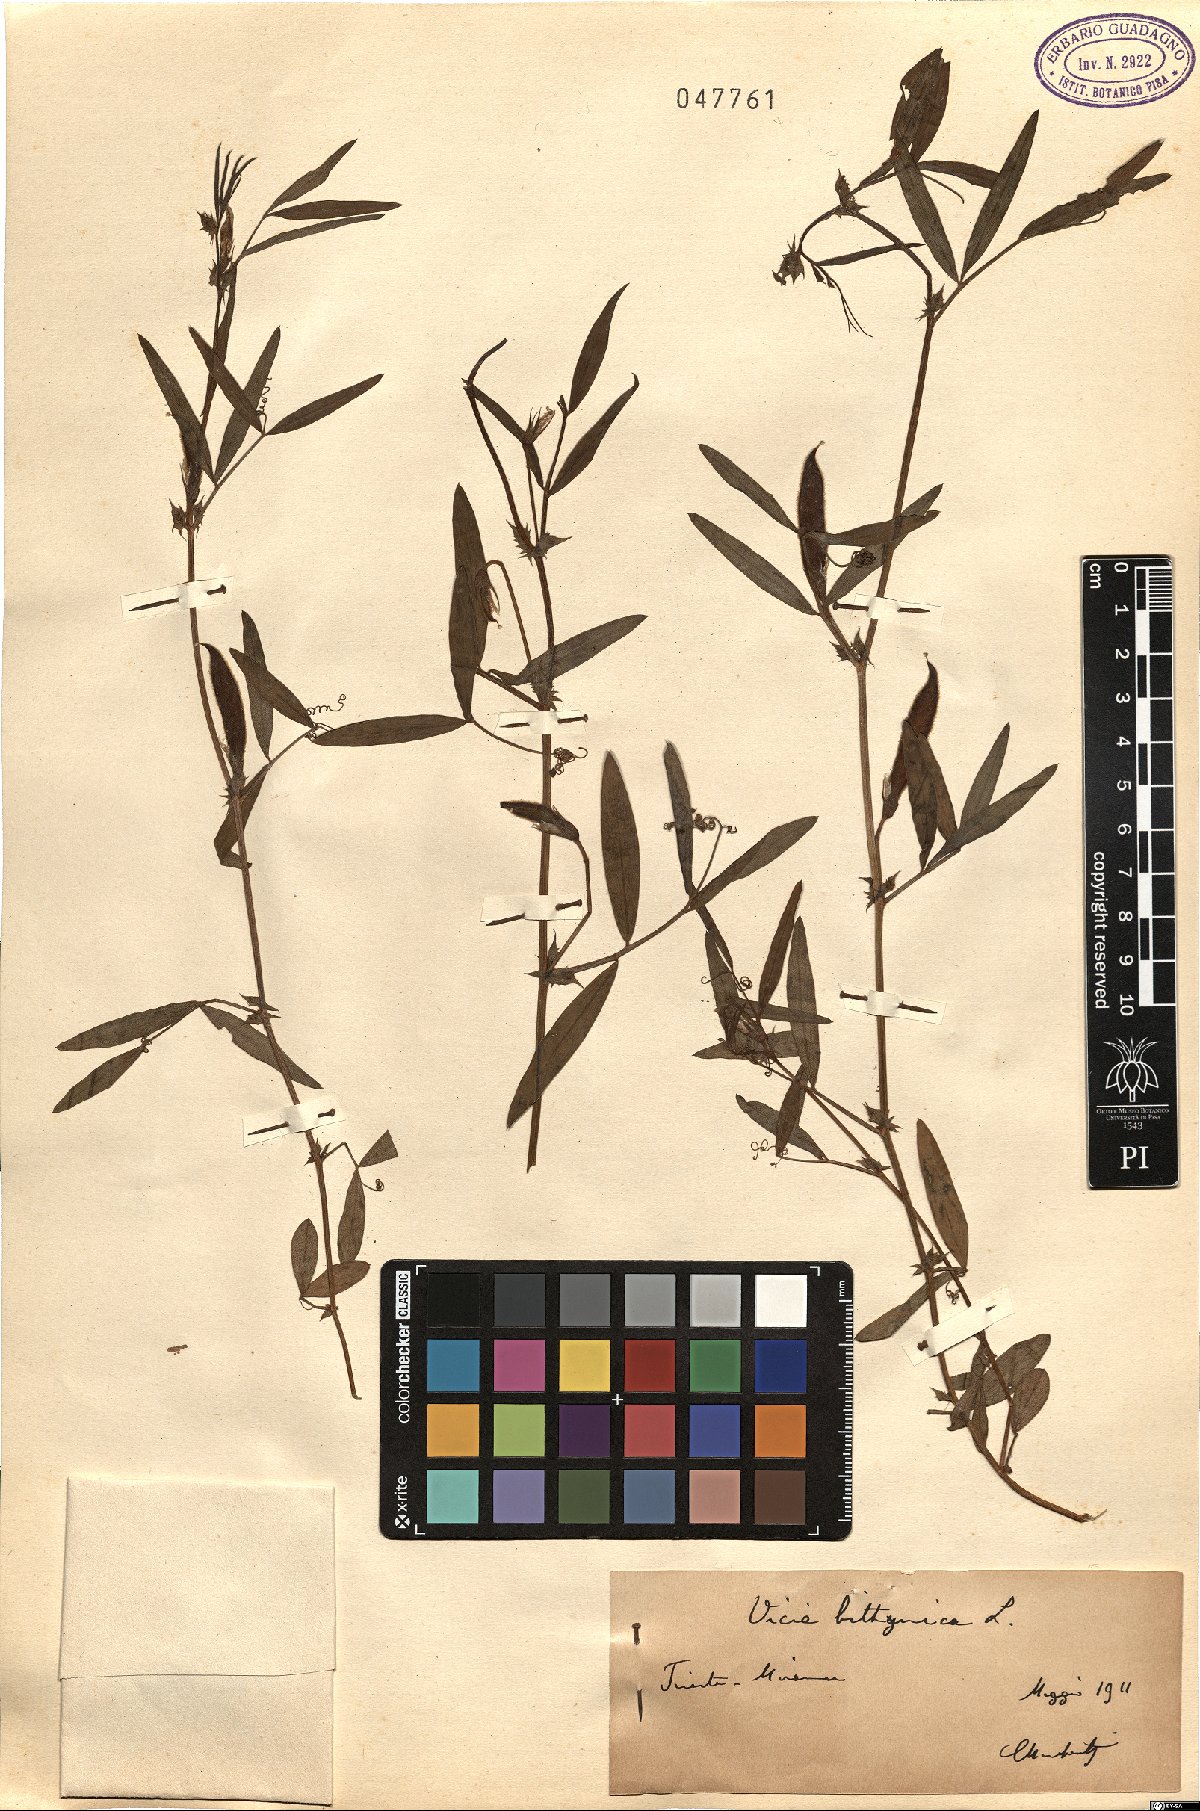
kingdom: Plantae
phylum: Tracheophyta
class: Magnoliopsida
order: Fabales
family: Fabaceae
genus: Vicia
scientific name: Vicia bithynica
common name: Bithynian vetch
